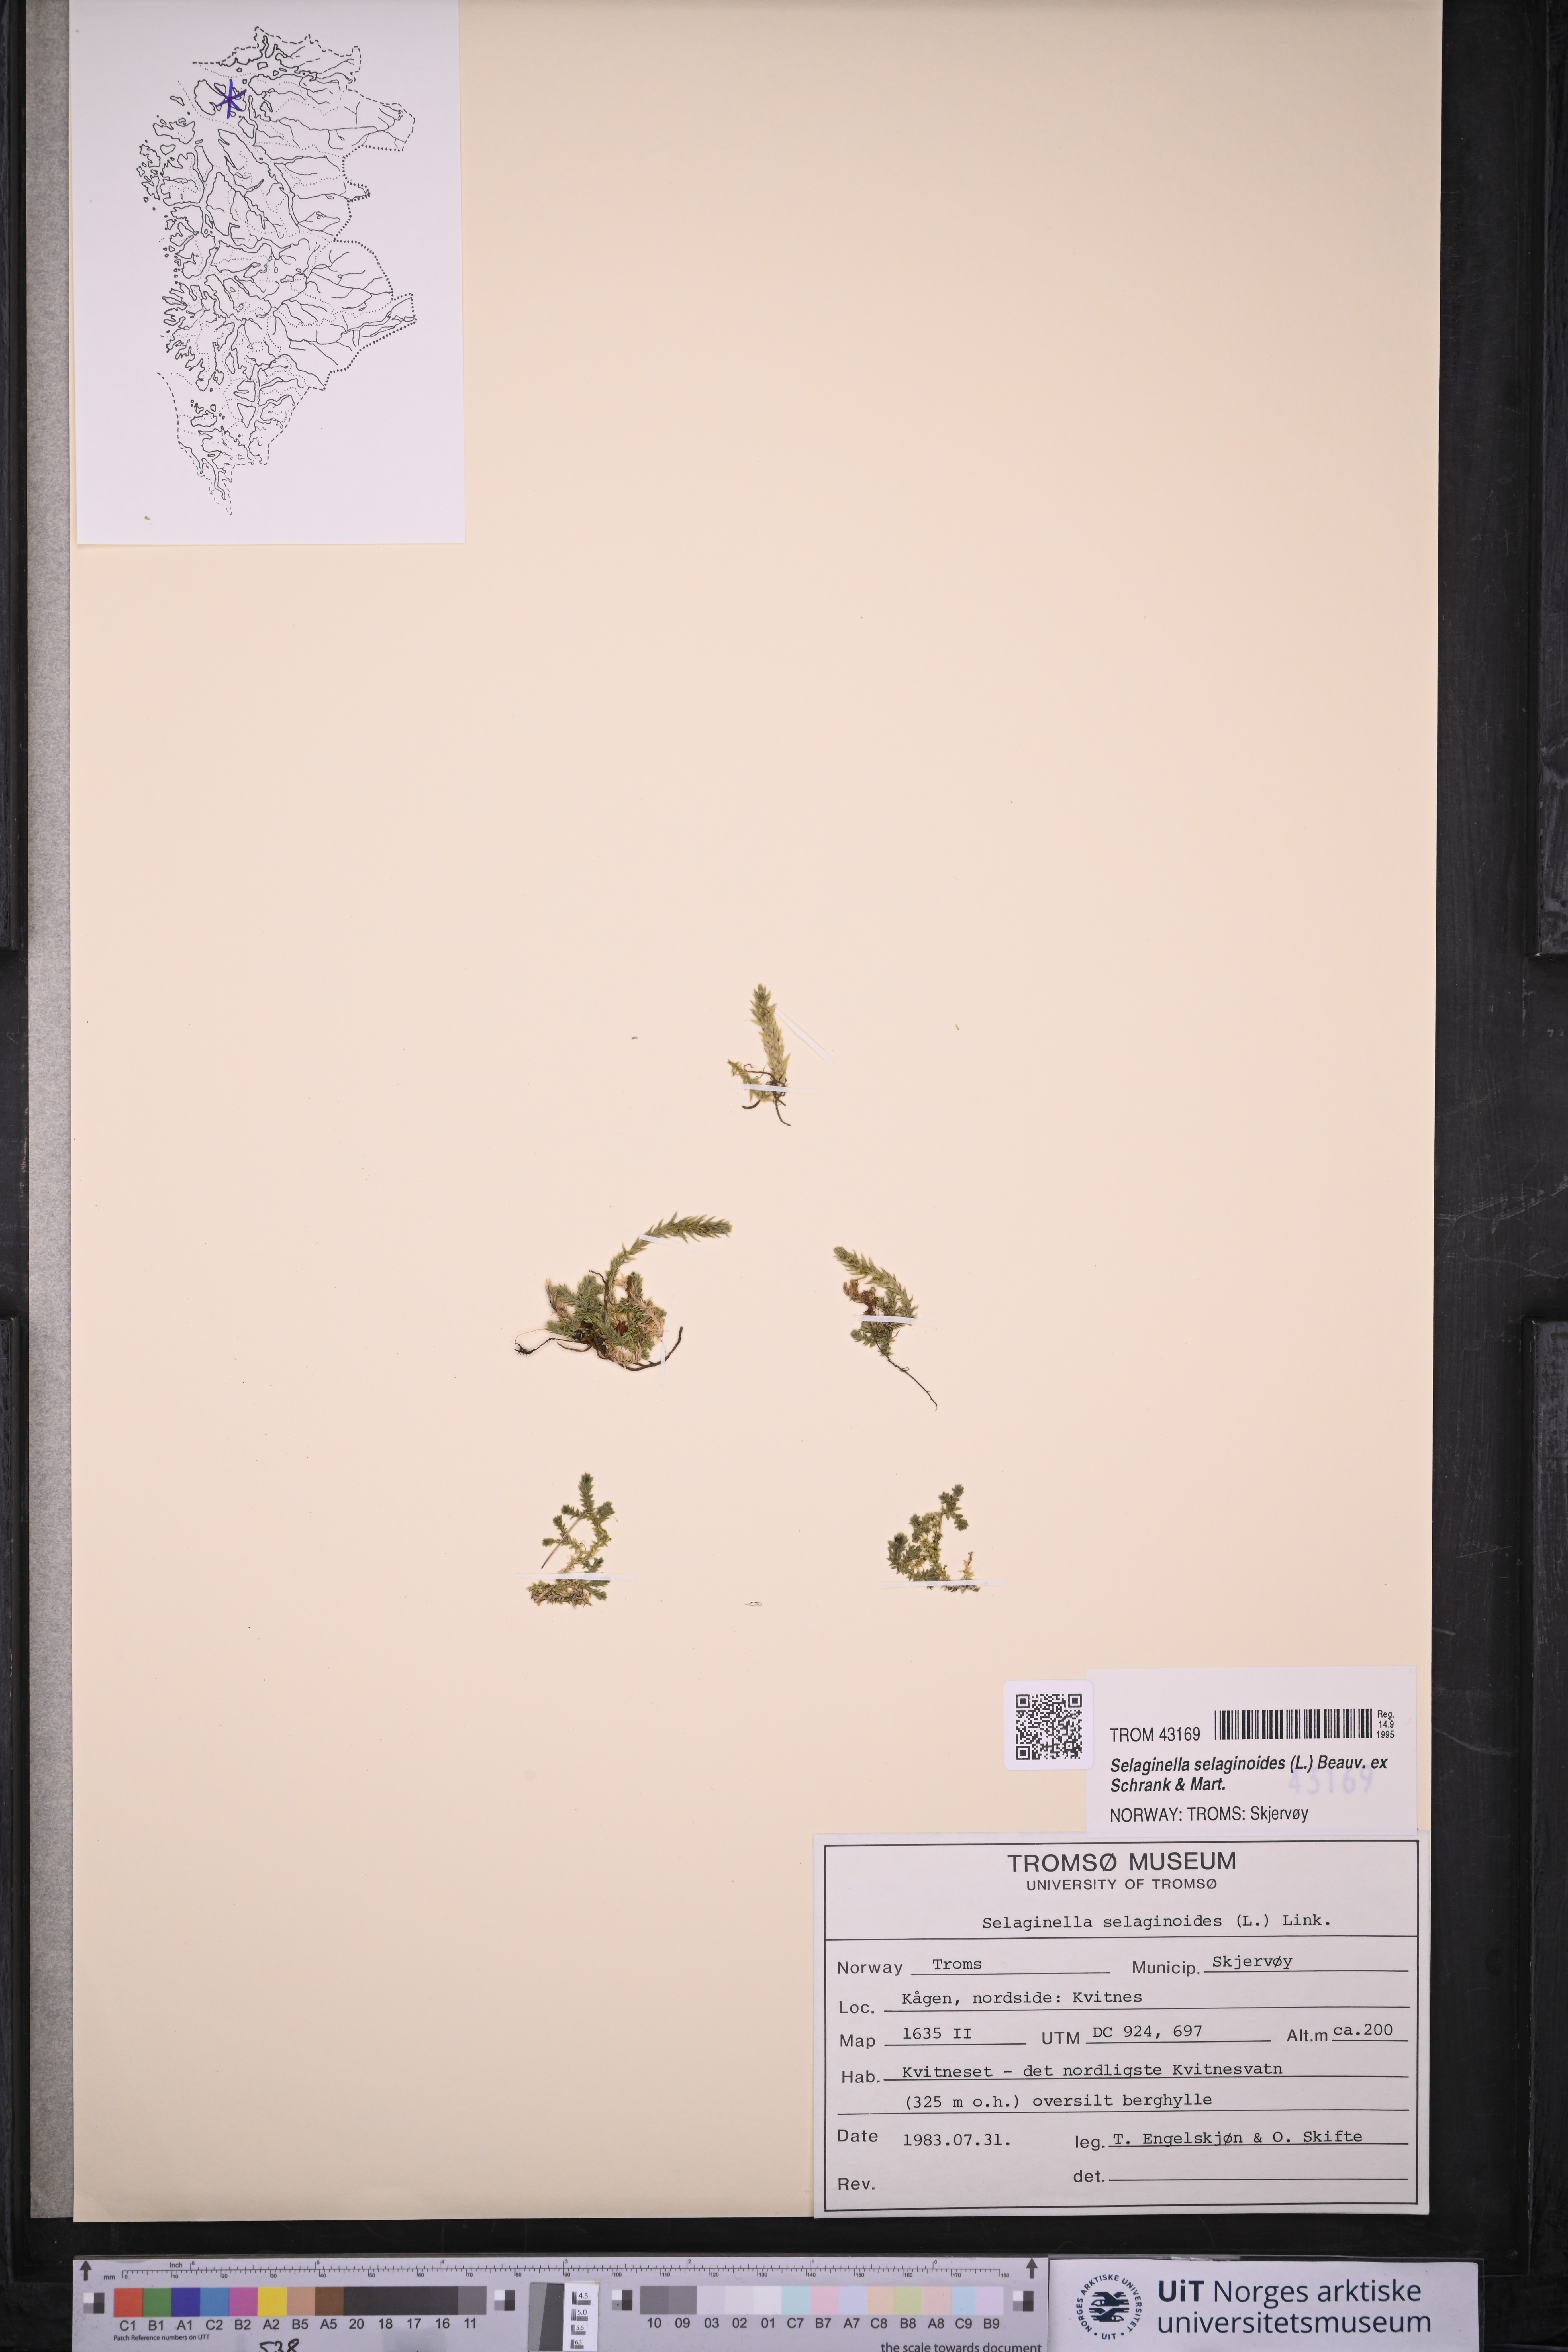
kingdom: Plantae
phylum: Tracheophyta
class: Lycopodiopsida
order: Selaginellales
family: Selaginellaceae
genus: Selaginella
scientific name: Selaginella selaginoides
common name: Prickly mountain-moss
